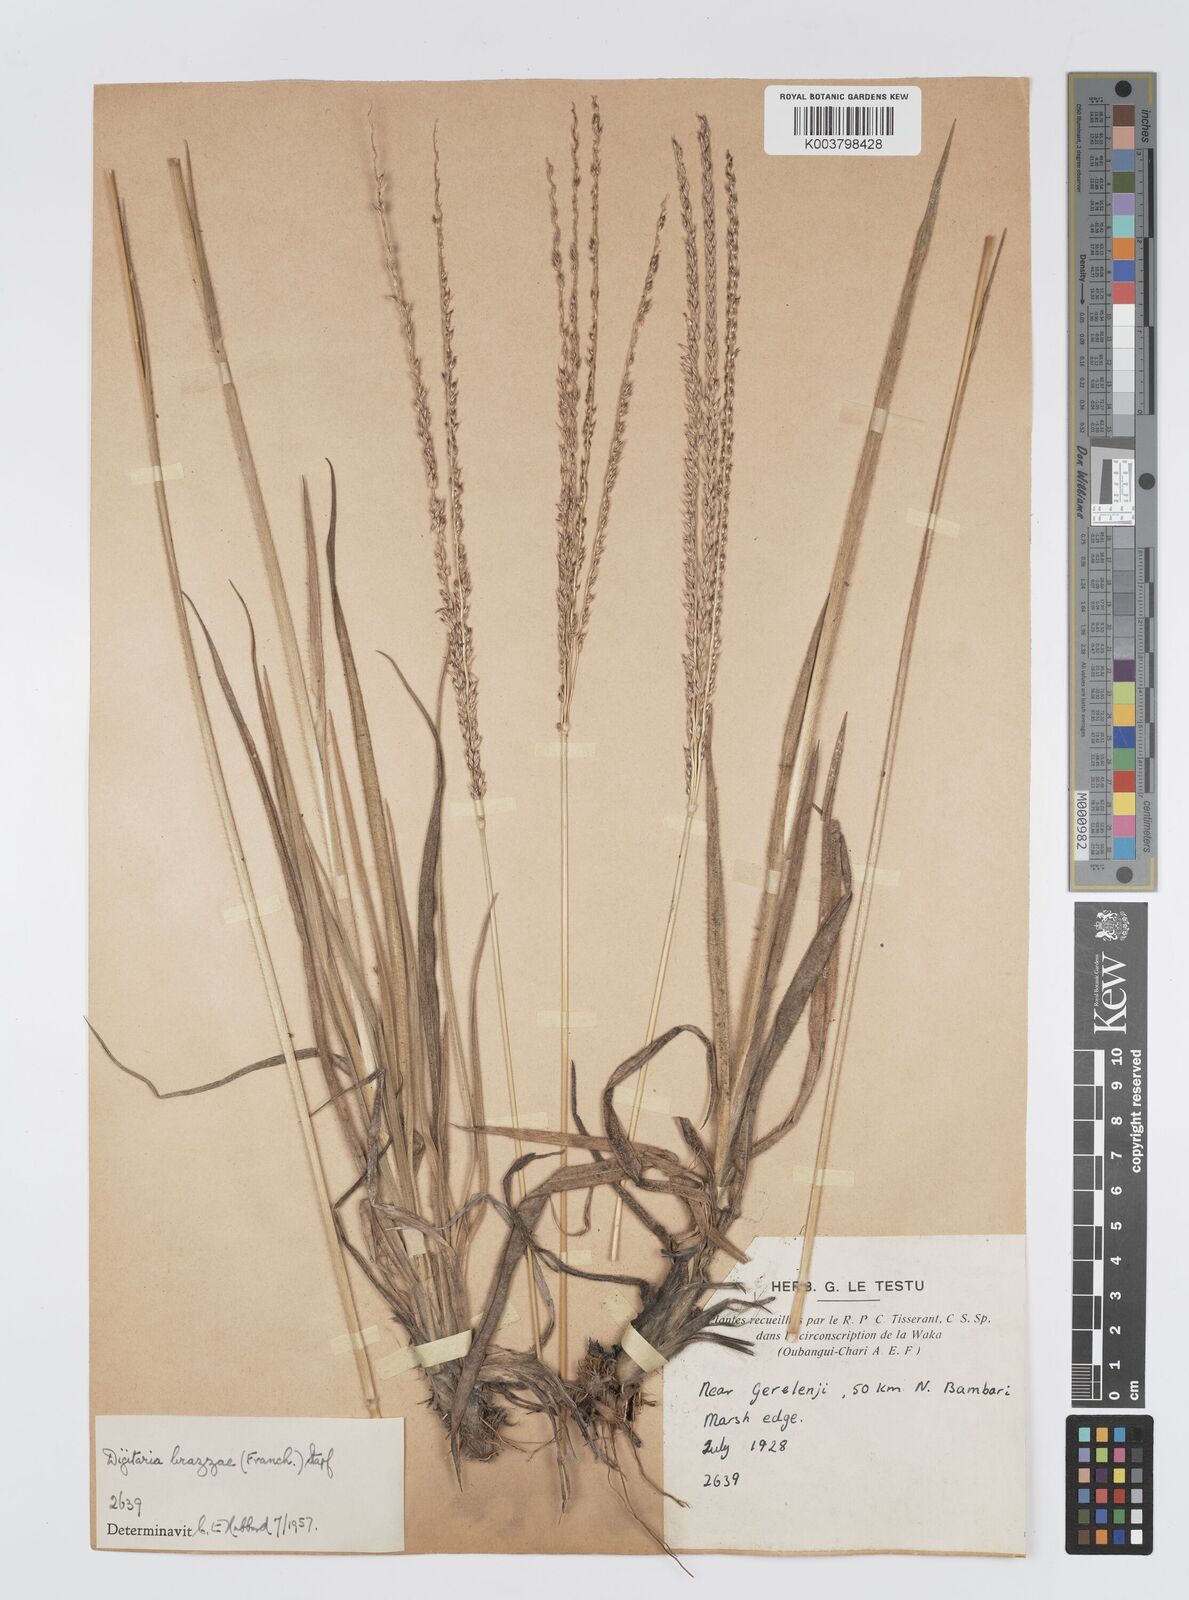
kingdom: Plantae
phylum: Tracheophyta
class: Liliopsida
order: Poales
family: Poaceae
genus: Digitaria
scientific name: Digitaria brazzae
